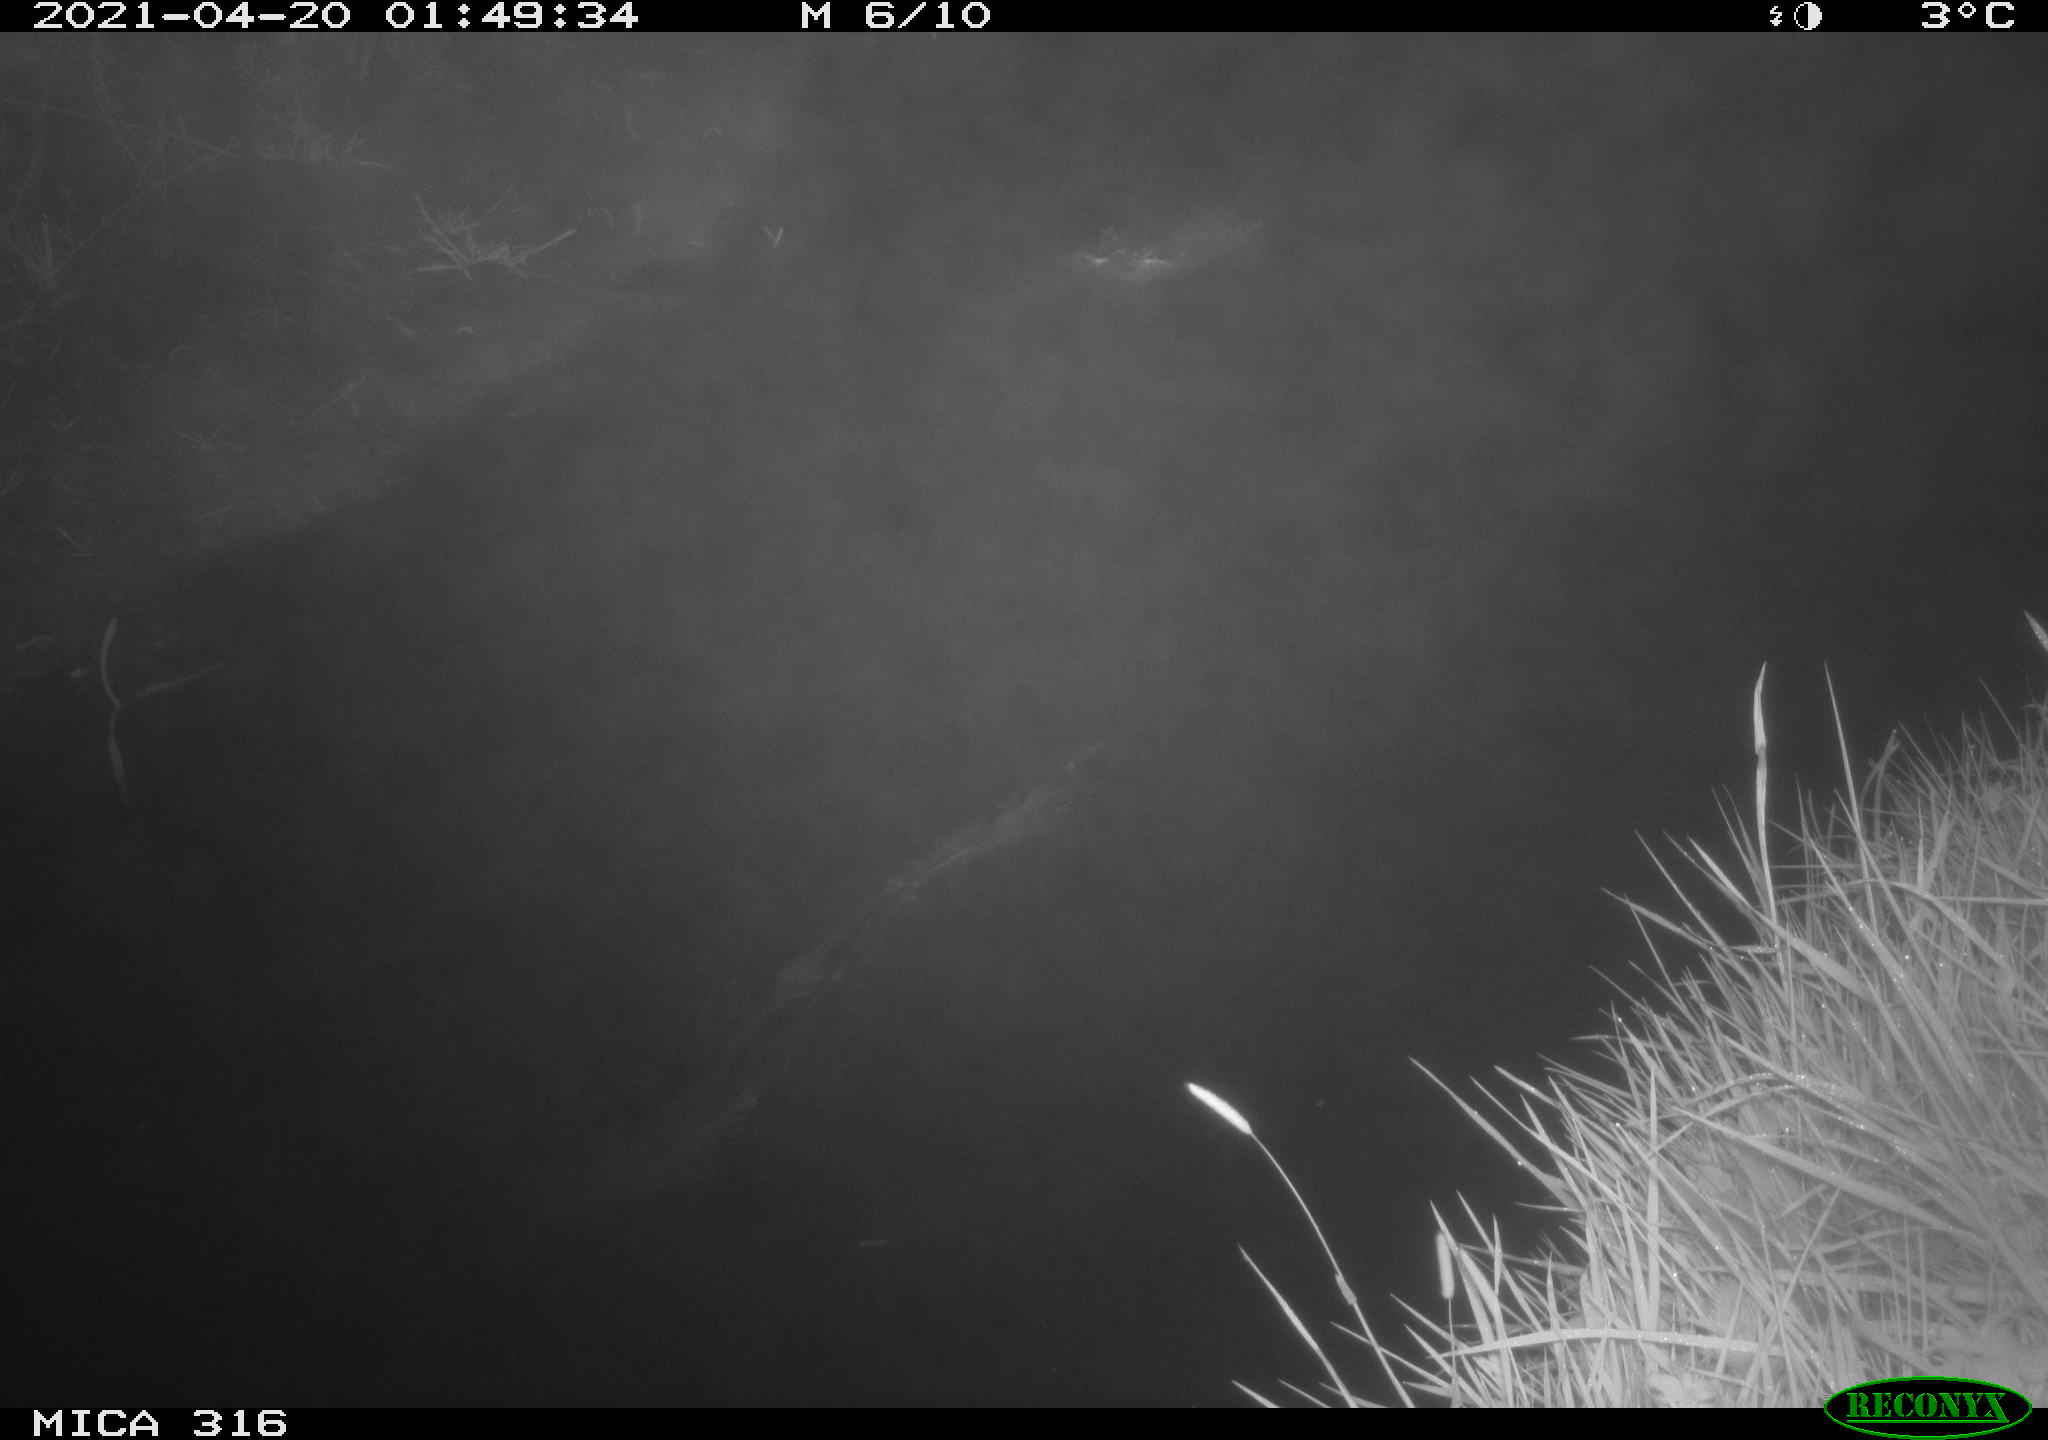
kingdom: Animalia
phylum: Chordata
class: Aves
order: Anseriformes
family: Anatidae
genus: Anas
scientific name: Anas platyrhynchos
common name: Mallard
